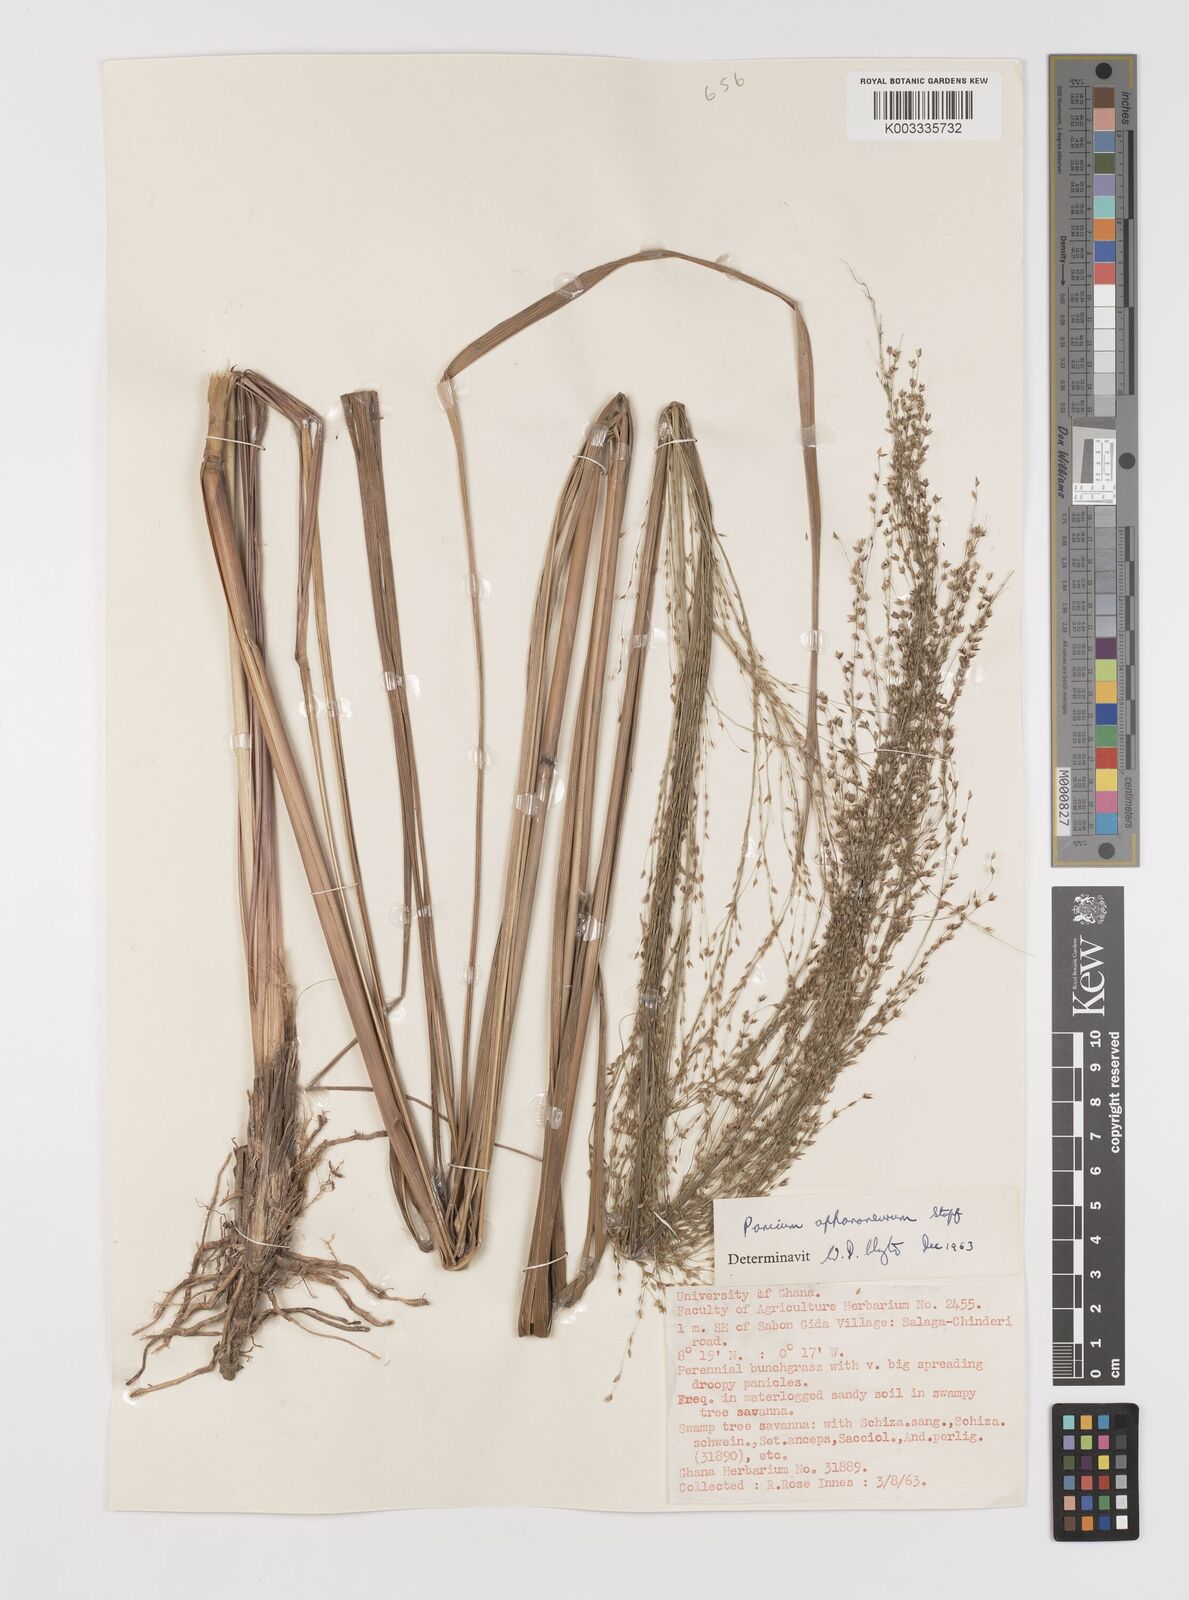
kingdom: Plantae
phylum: Tracheophyta
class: Liliopsida
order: Poales
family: Poaceae
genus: Panicum
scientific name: Panicum fluviicola
